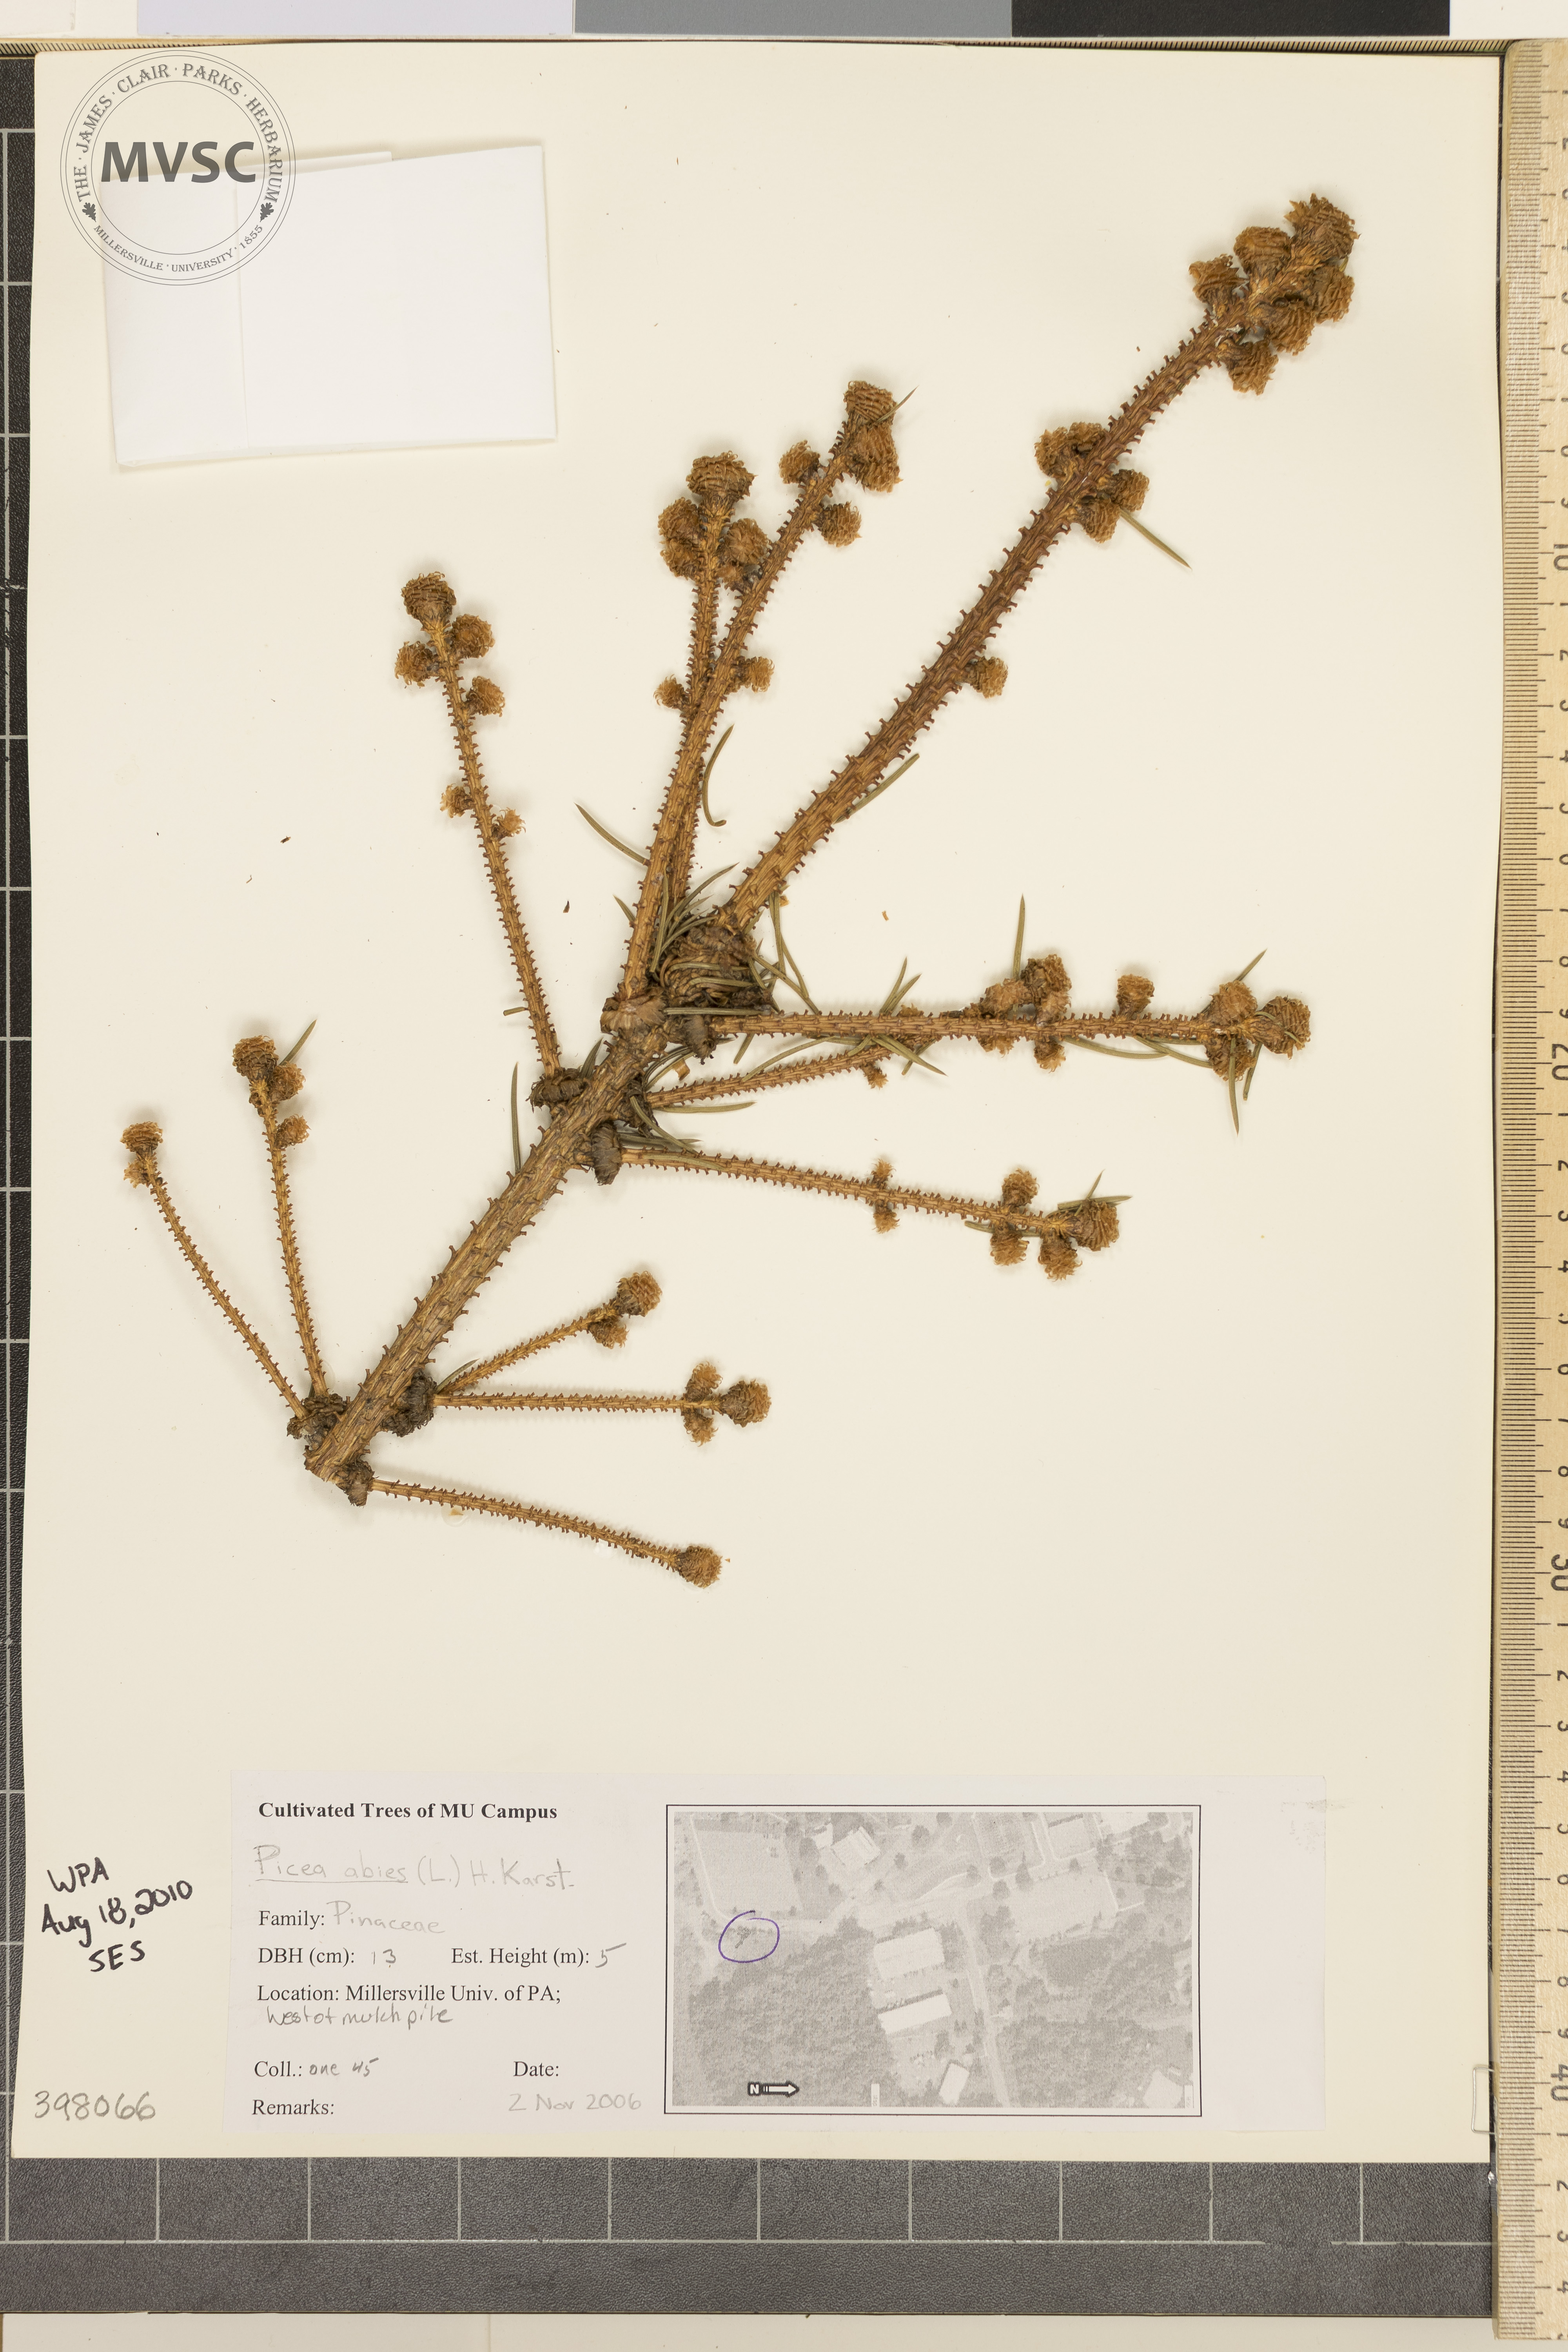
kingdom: Plantae
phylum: Tracheophyta
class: Pinopsida
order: Pinales
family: Pinaceae
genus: Picea
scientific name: Picea abies
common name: Norway spruce
